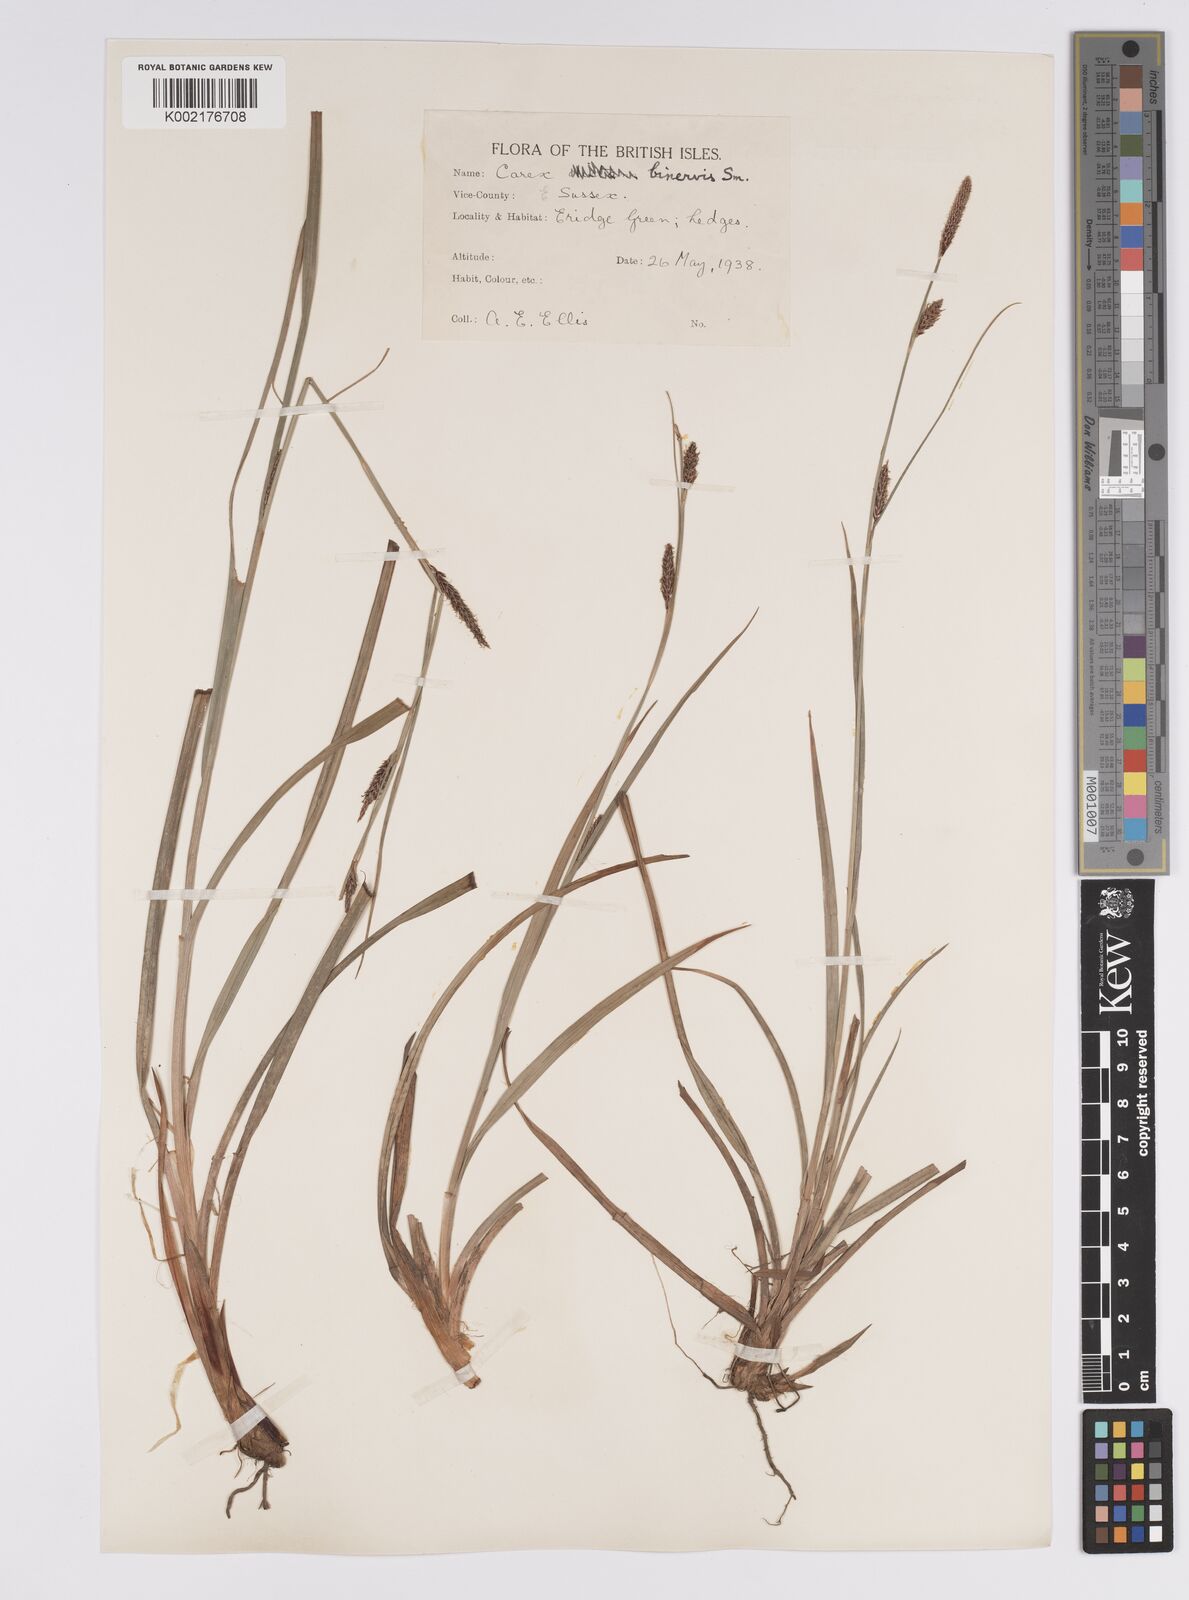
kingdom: Plantae
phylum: Tracheophyta
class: Liliopsida
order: Poales
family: Cyperaceae
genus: Carex
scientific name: Carex binervis
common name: Green-ribbed sedge
